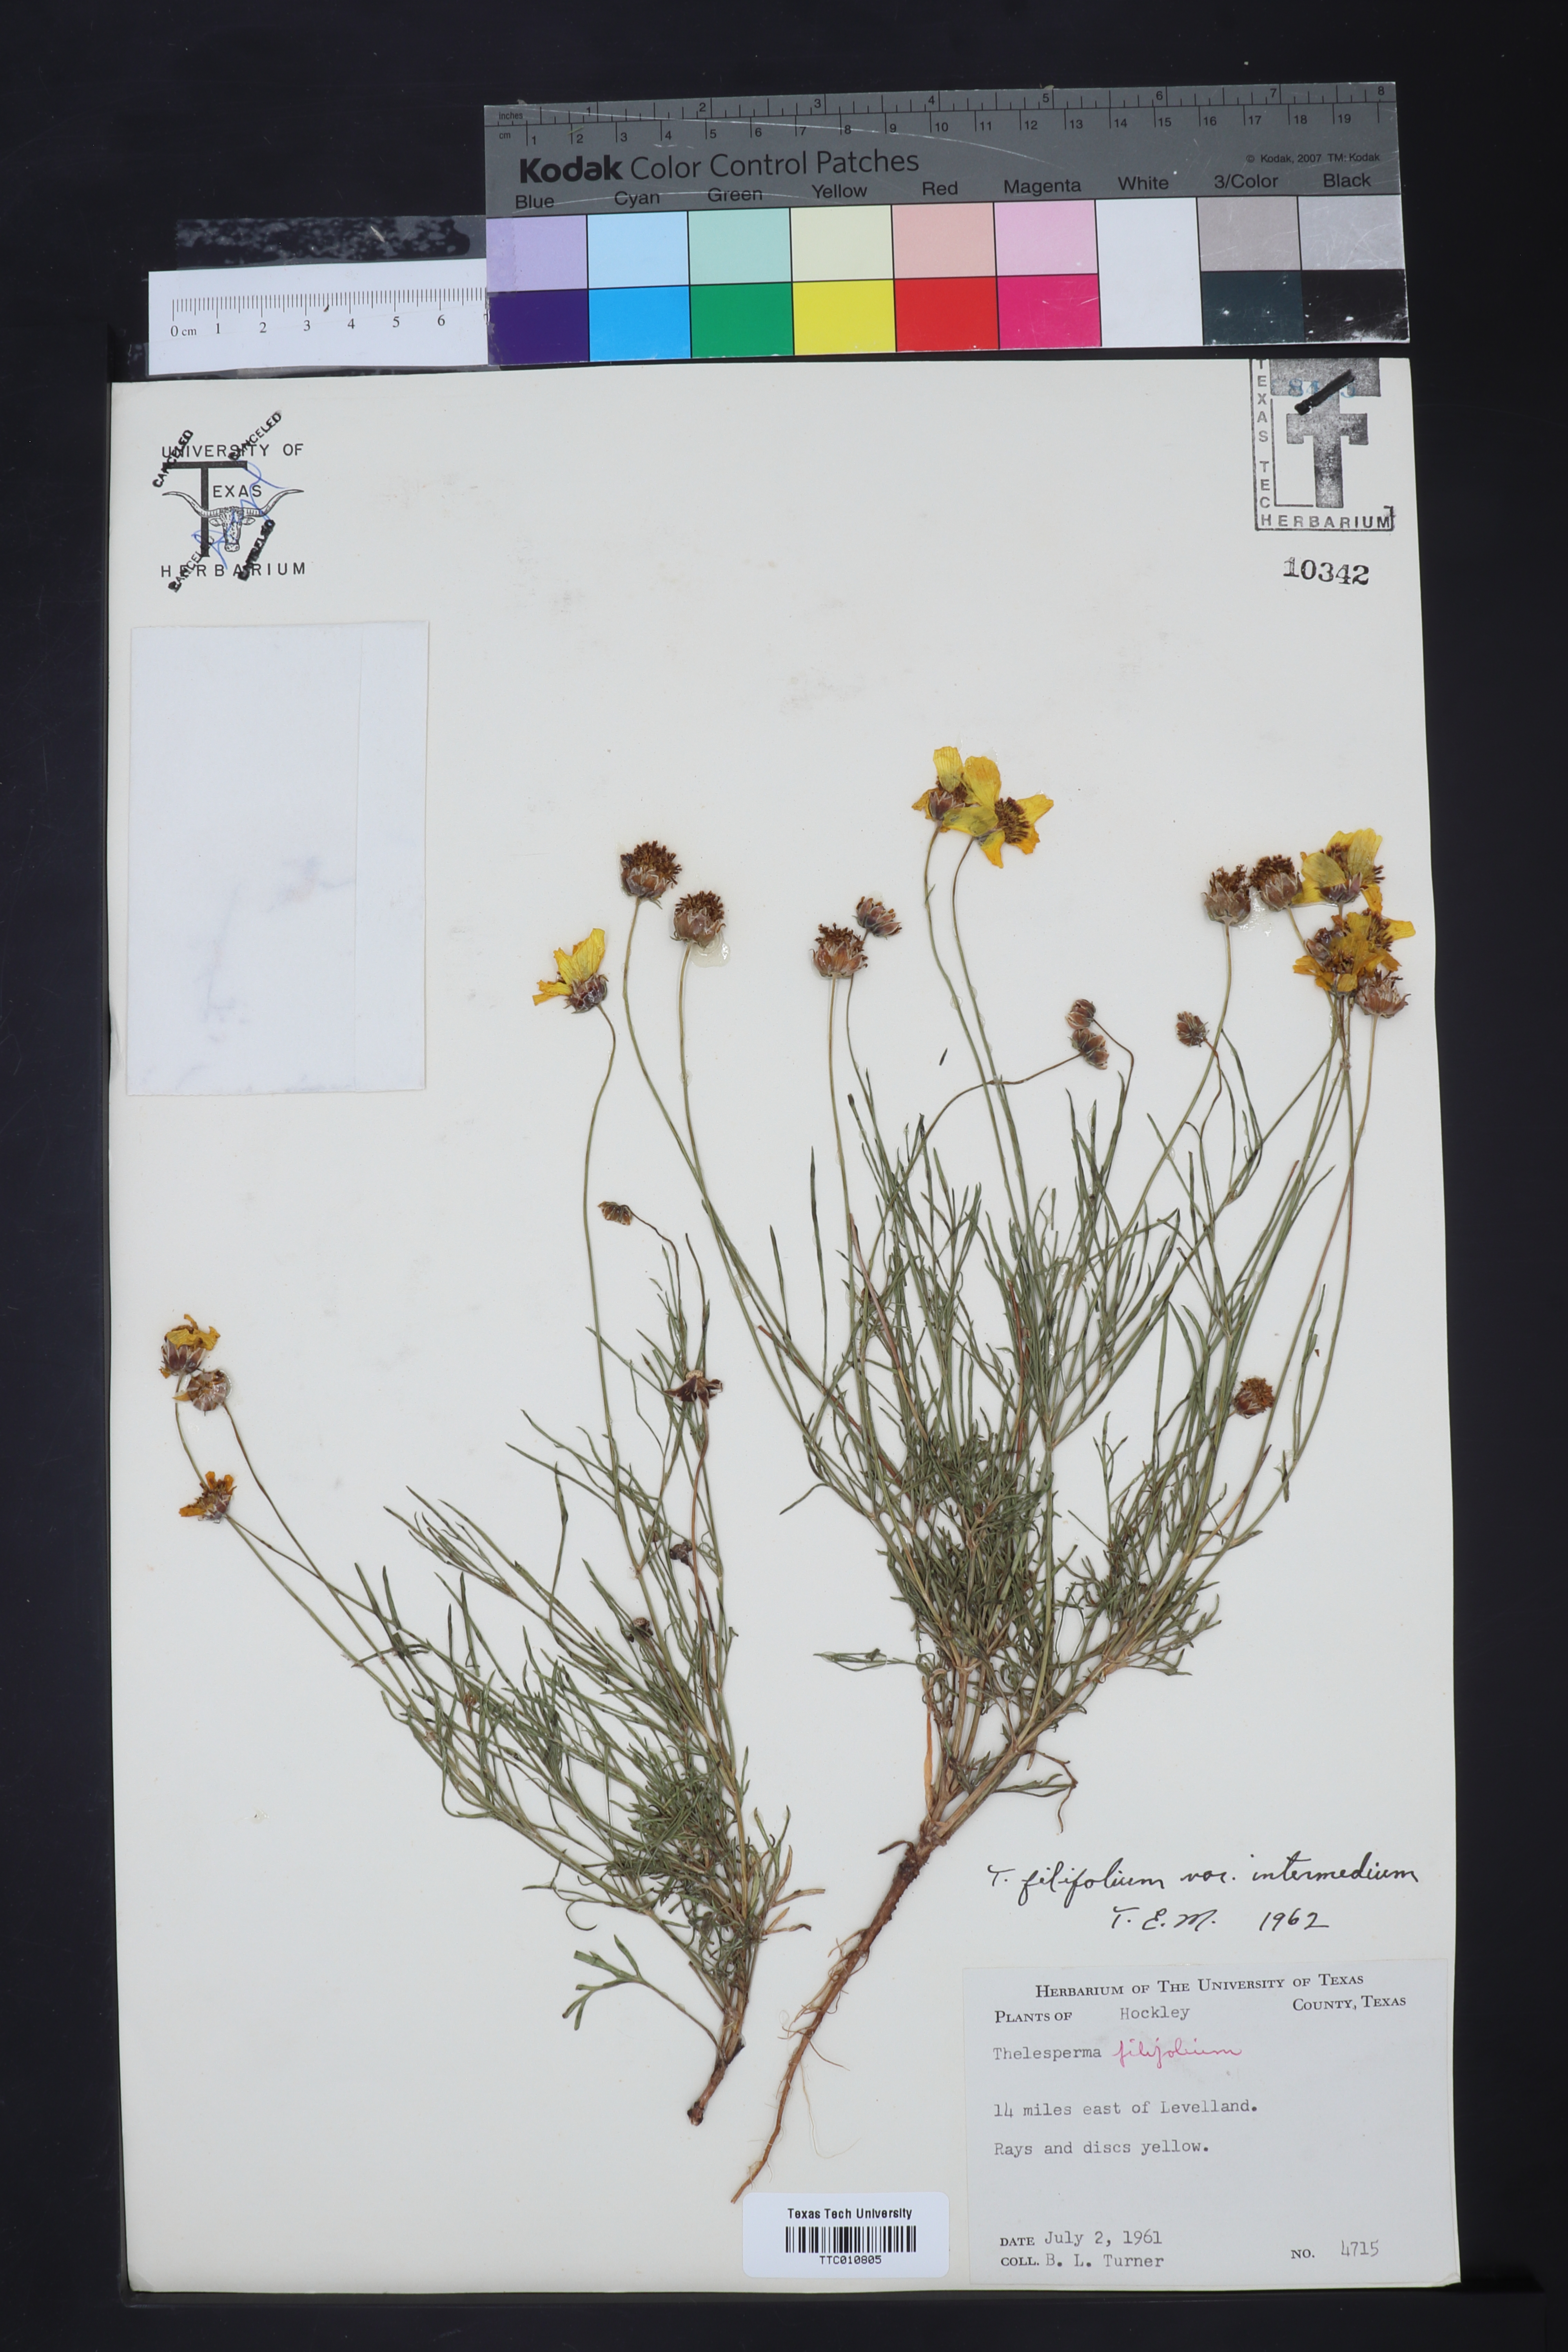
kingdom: Plantae
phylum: Tracheophyta
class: Magnoliopsida
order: Asterales
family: Asteraceae
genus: Thelesperma
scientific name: Thelesperma filifolium
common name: Stiff greenthread
